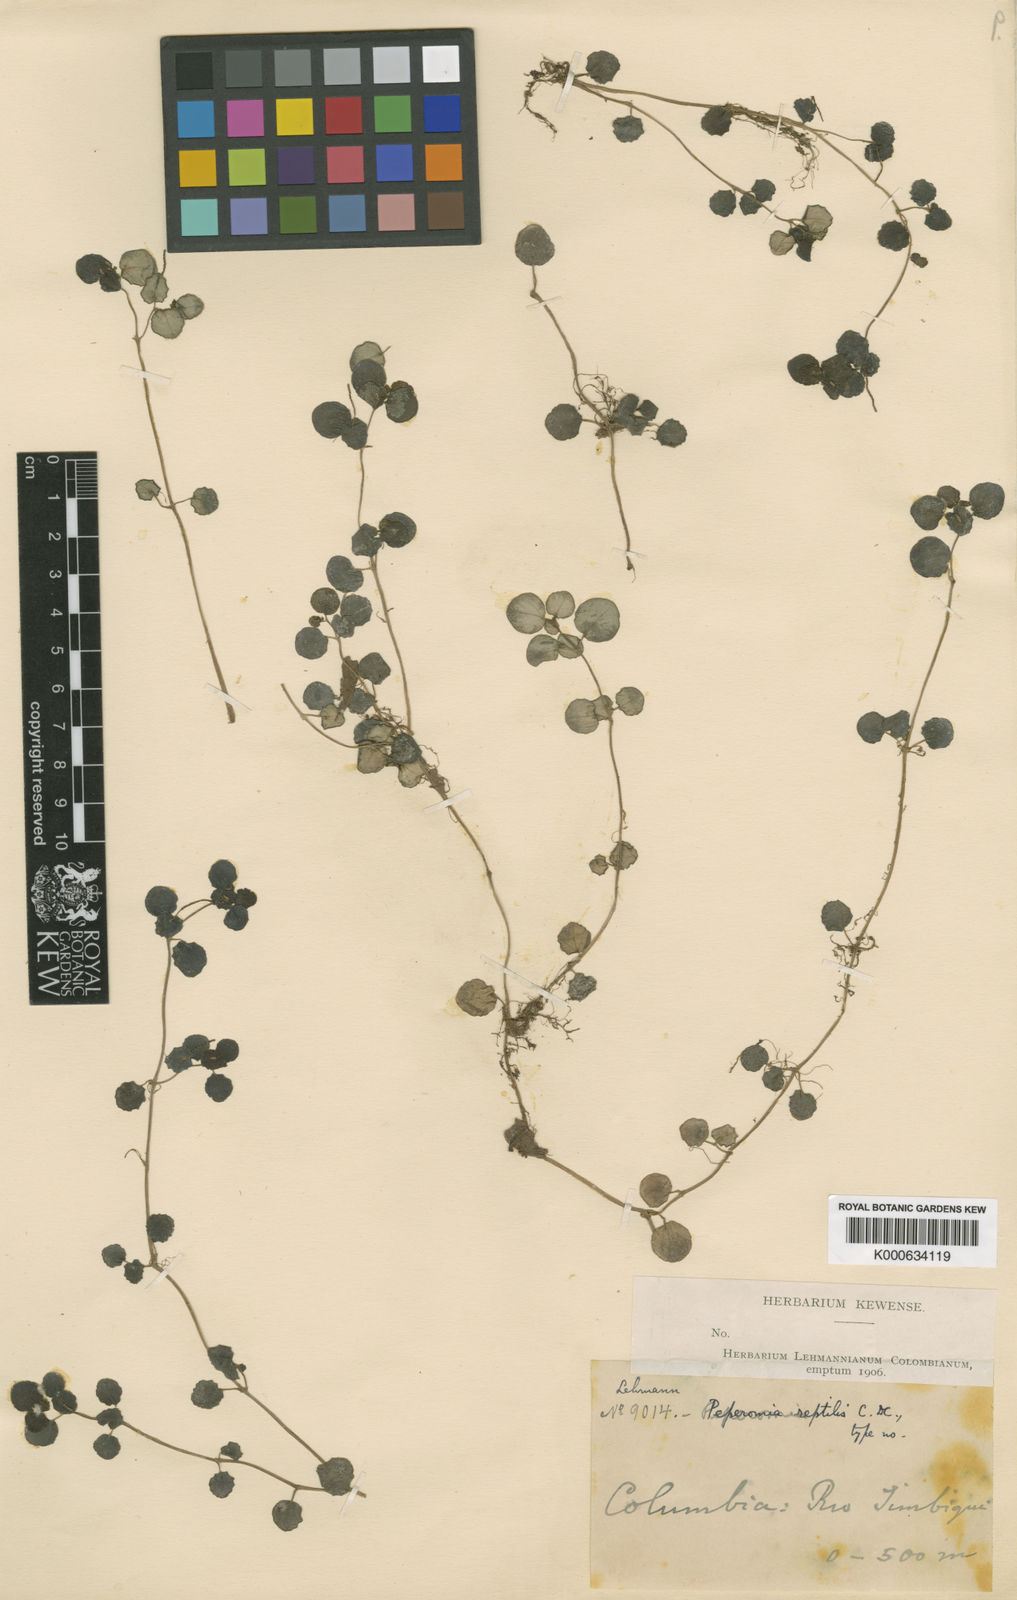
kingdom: Plantae
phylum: Tracheophyta
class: Magnoliopsida
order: Piperales
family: Piperaceae
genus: Peperomia
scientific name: Peperomia reptilis
